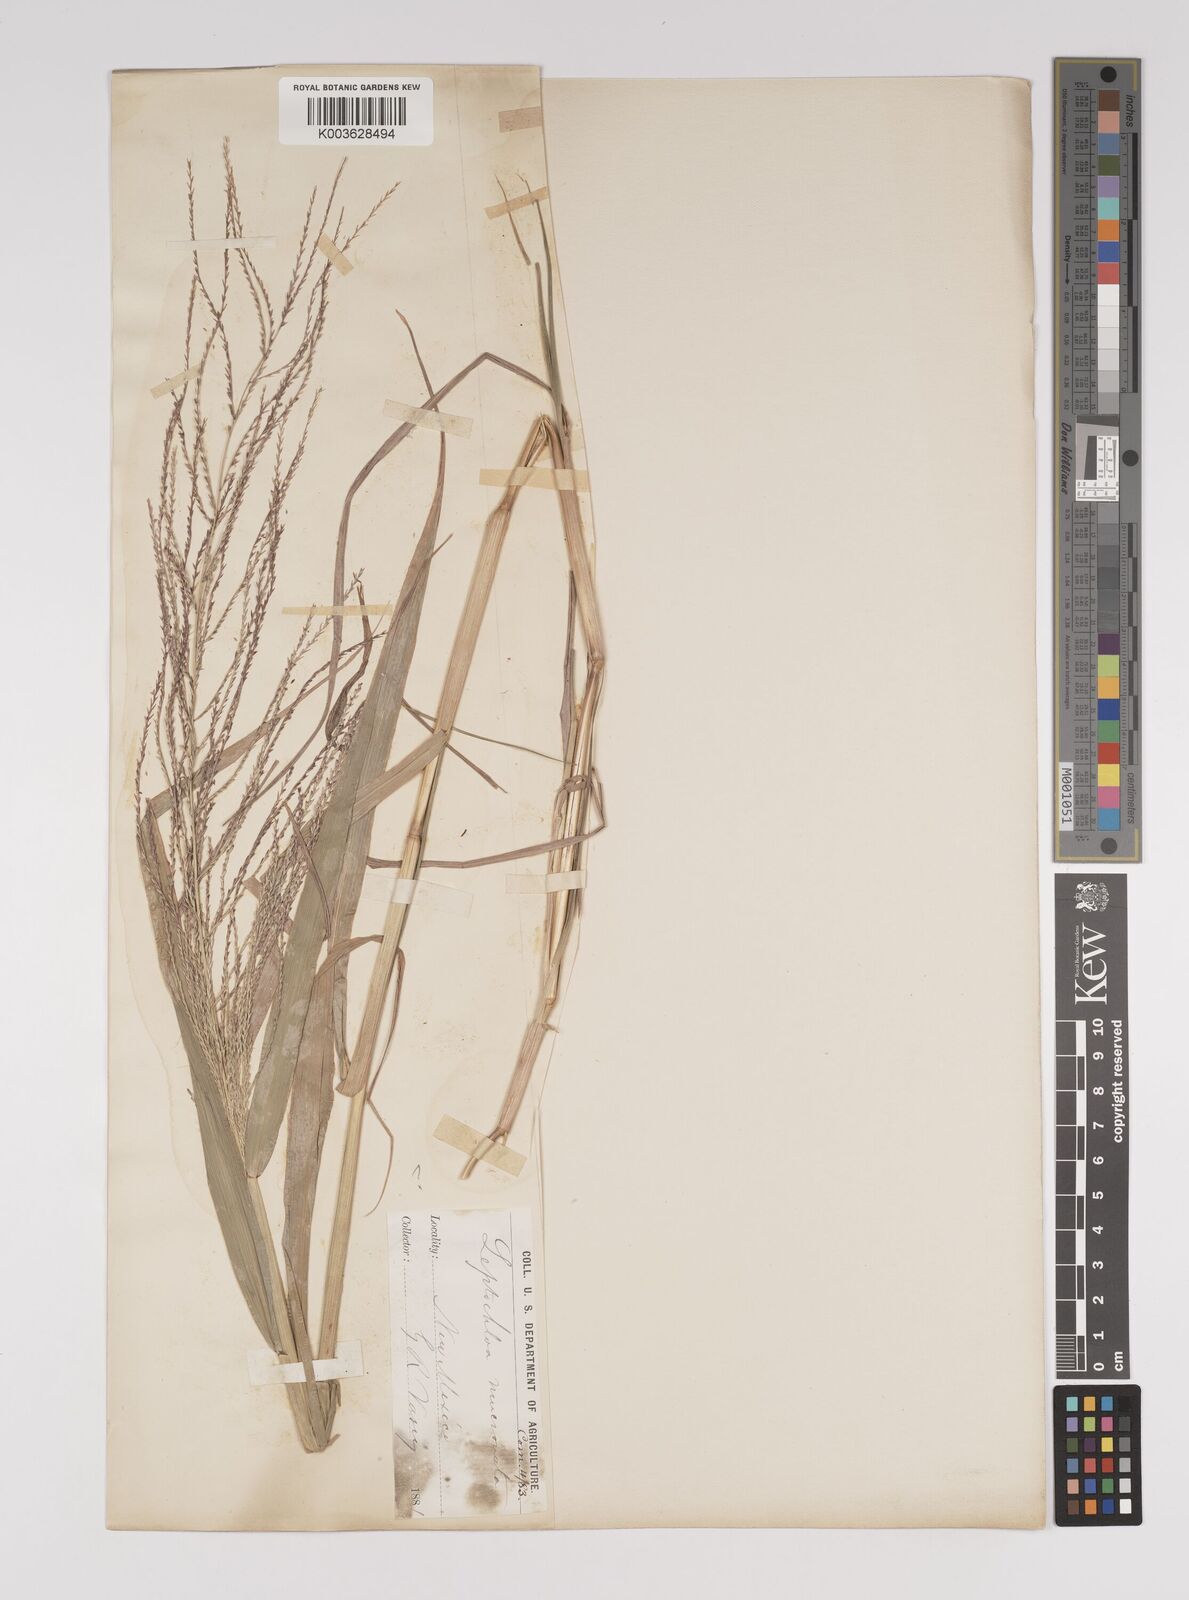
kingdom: Plantae
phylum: Tracheophyta
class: Liliopsida
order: Poales
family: Poaceae
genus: Leptochloa
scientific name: Leptochloa panicea
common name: Mucronate sprangletop
